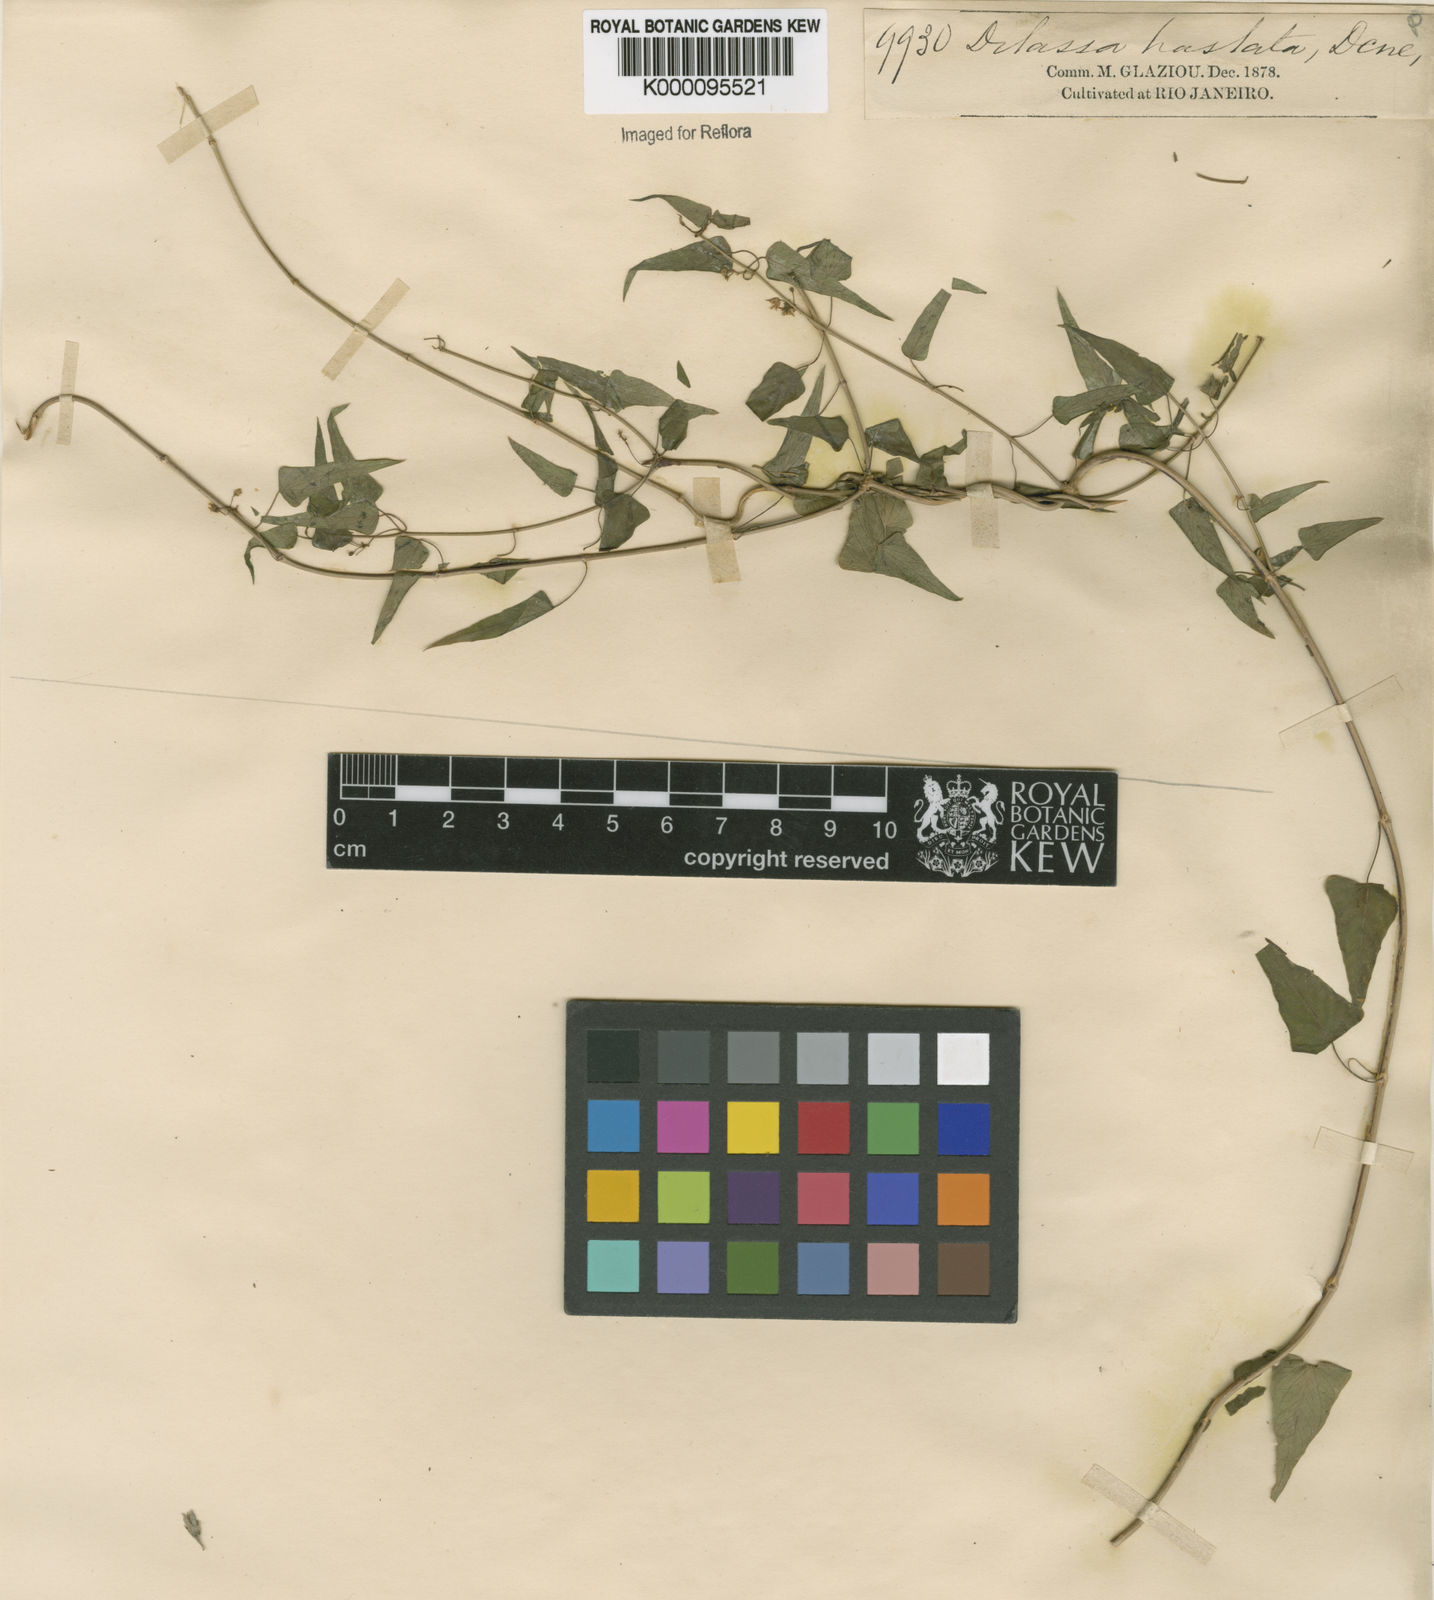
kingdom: Plantae
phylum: Tracheophyta
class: Magnoliopsida
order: Gentianales
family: Apocynaceae
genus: Ditassa
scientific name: Ditassa hastata
